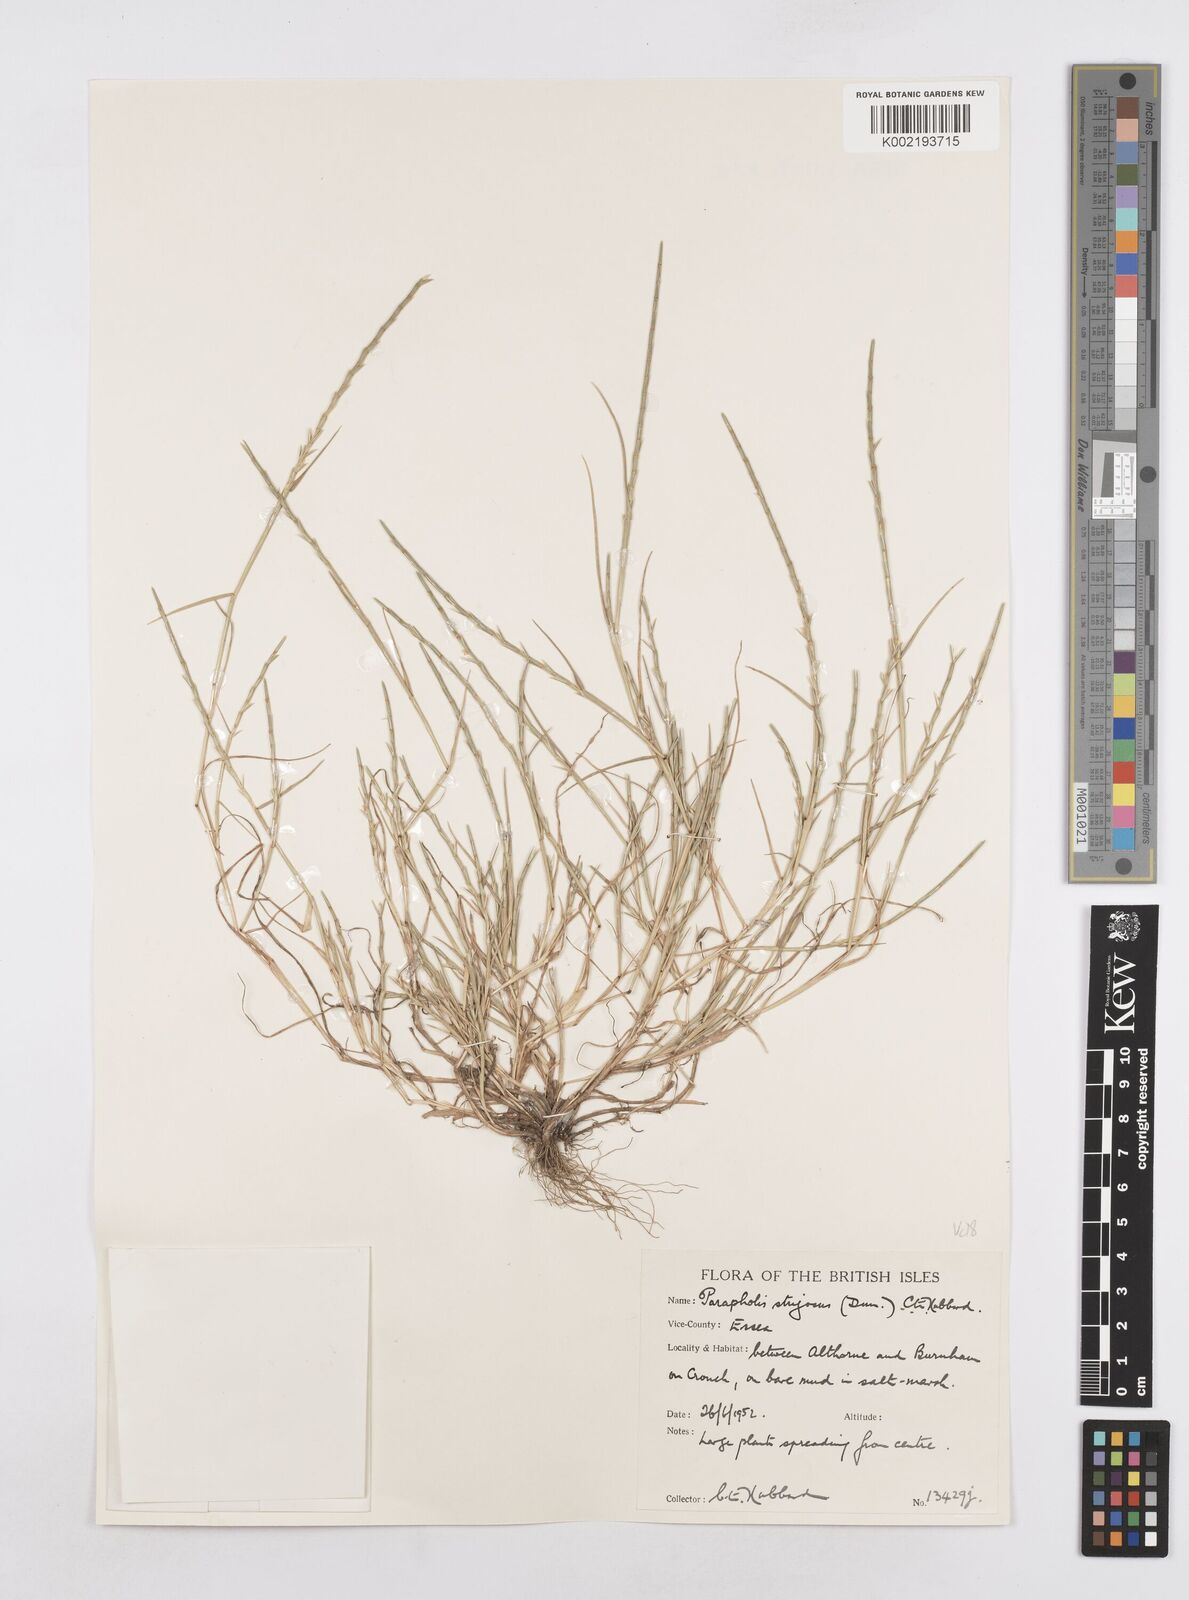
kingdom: Plantae
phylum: Tracheophyta
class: Liliopsida
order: Poales
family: Poaceae
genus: Parapholis
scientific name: Parapholis strigosa
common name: Hard-grass
